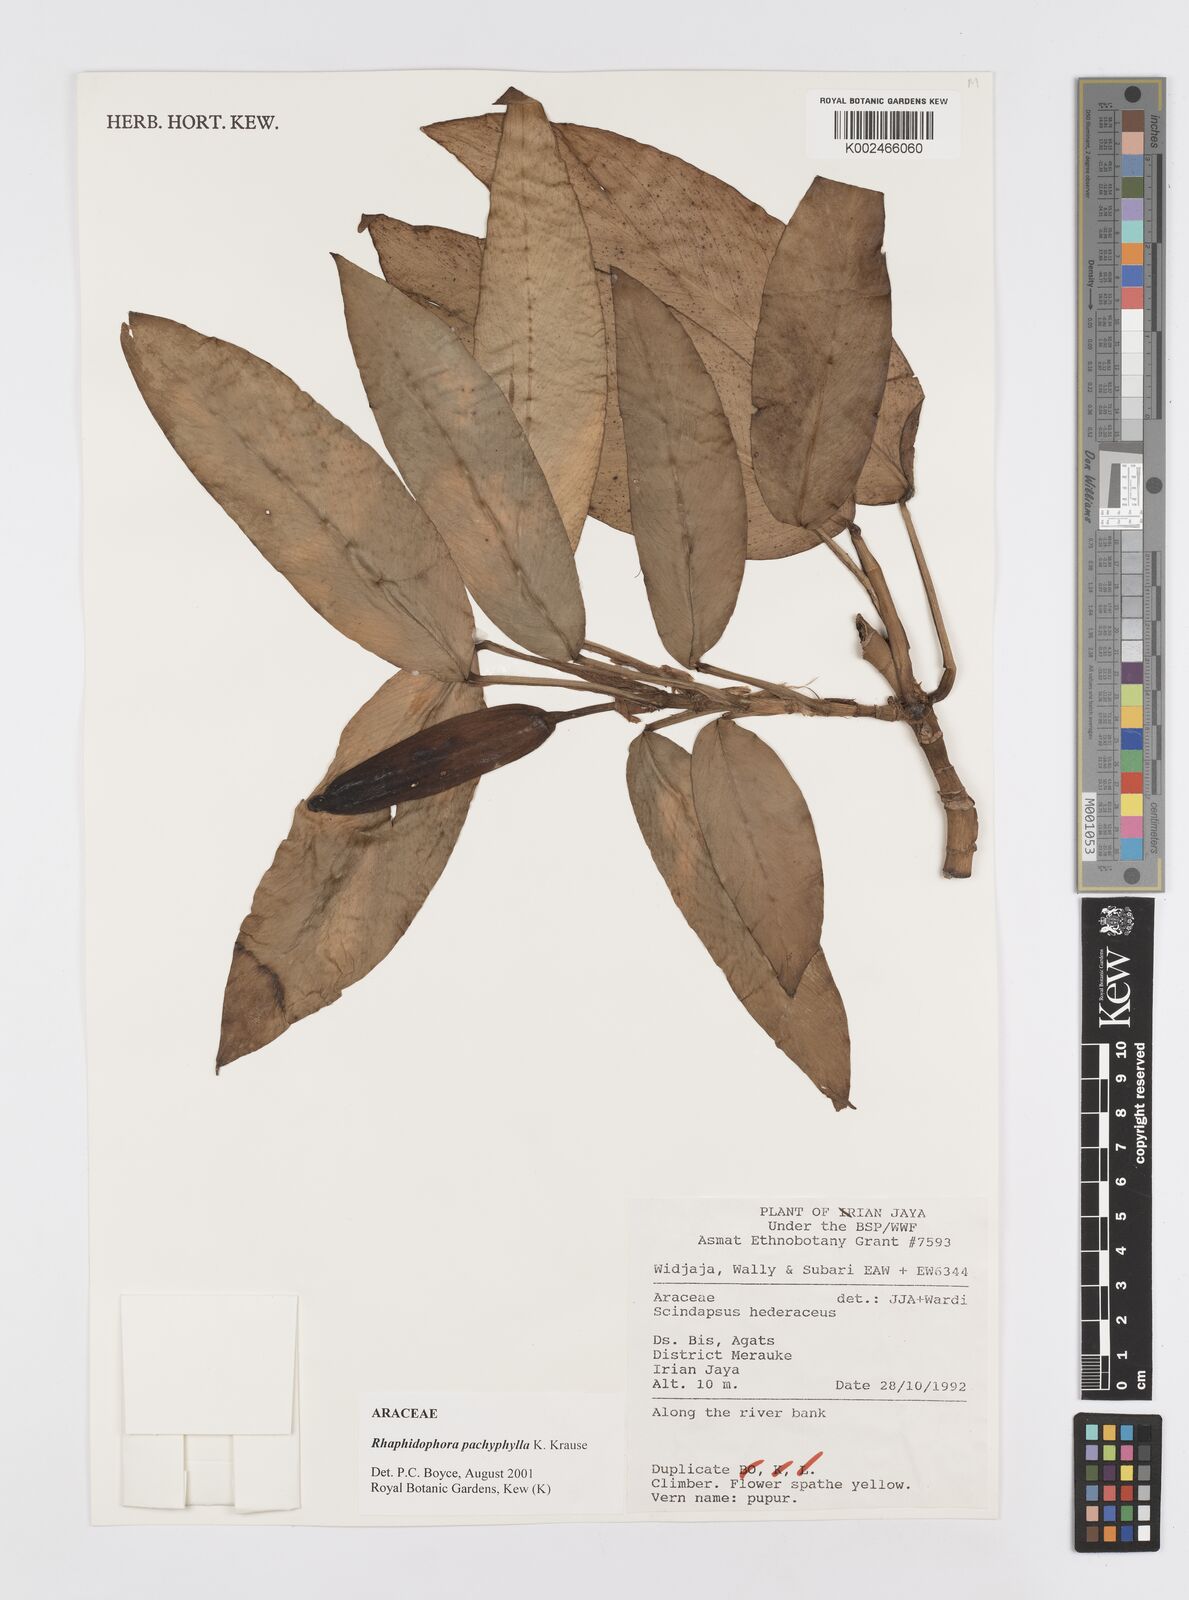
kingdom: Plantae
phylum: Tracheophyta
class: Liliopsida
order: Alismatales
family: Araceae
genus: Rhaphidophora
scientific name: Rhaphidophora nicolsonii
